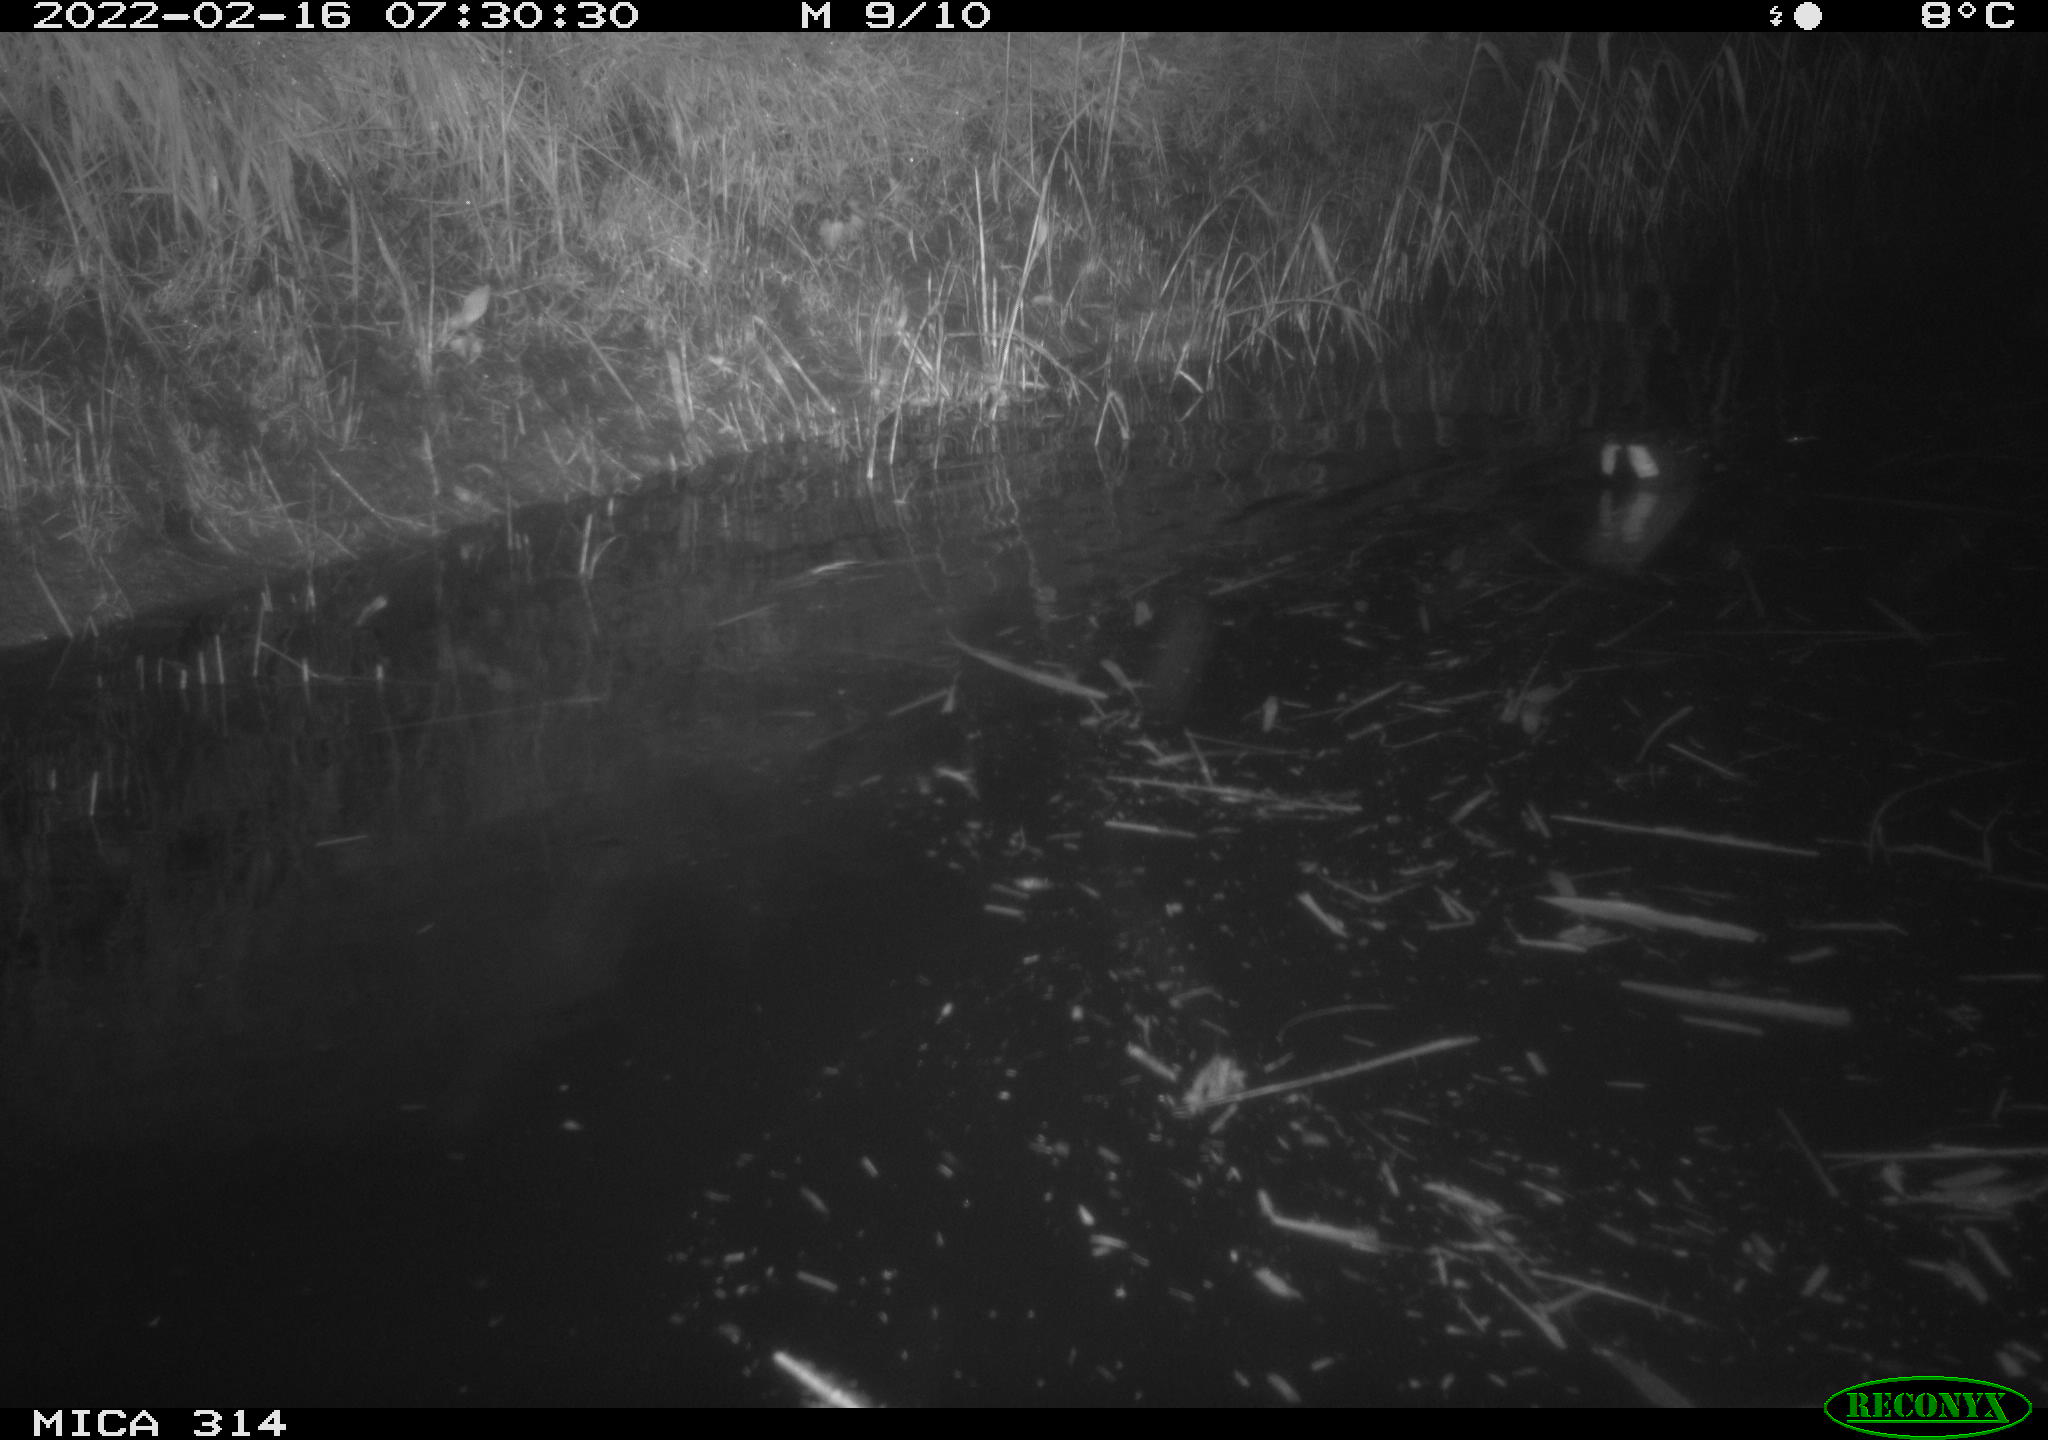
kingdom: Animalia
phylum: Chordata
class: Aves
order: Gruiformes
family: Rallidae
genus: Gallinula
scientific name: Gallinula chloropus
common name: Common moorhen
